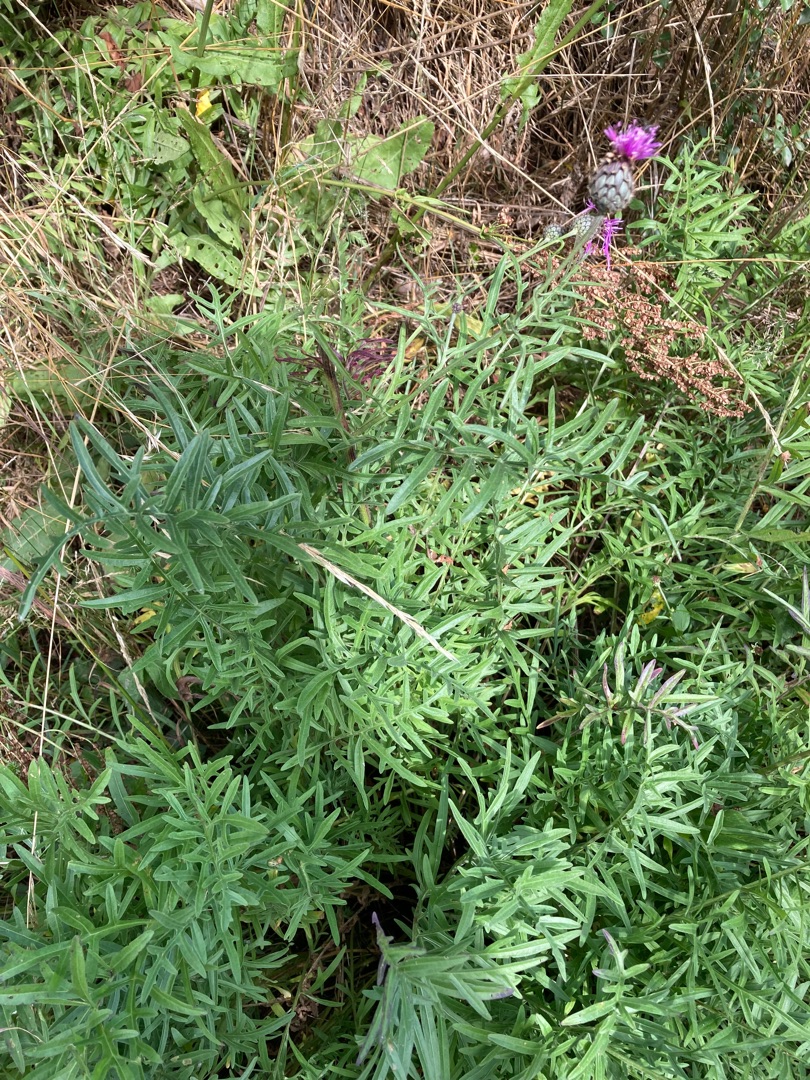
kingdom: Plantae
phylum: Tracheophyta
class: Magnoliopsida
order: Asterales
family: Asteraceae
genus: Centaurea
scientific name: Centaurea scabiosa
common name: Stor knopurt
